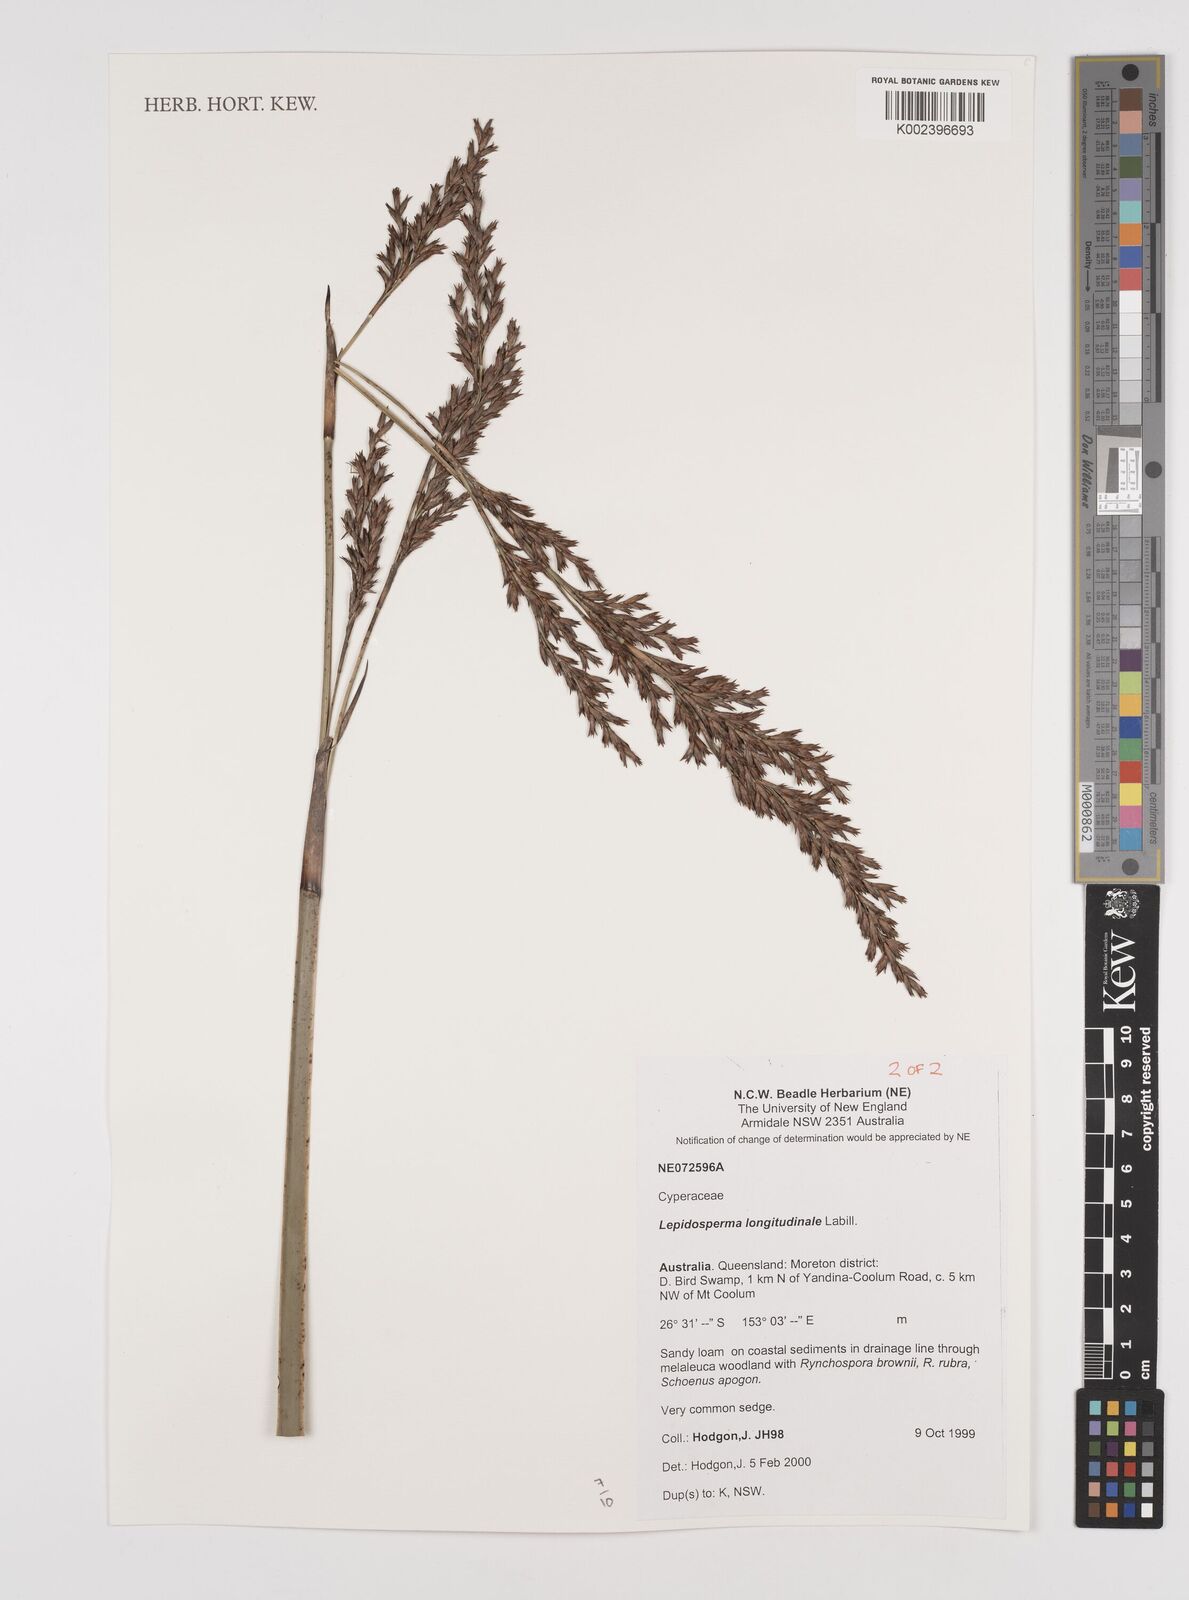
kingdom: Plantae
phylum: Tracheophyta
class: Liliopsida
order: Poales
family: Cyperaceae
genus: Lepidosperma
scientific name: Lepidosperma longitudinale
